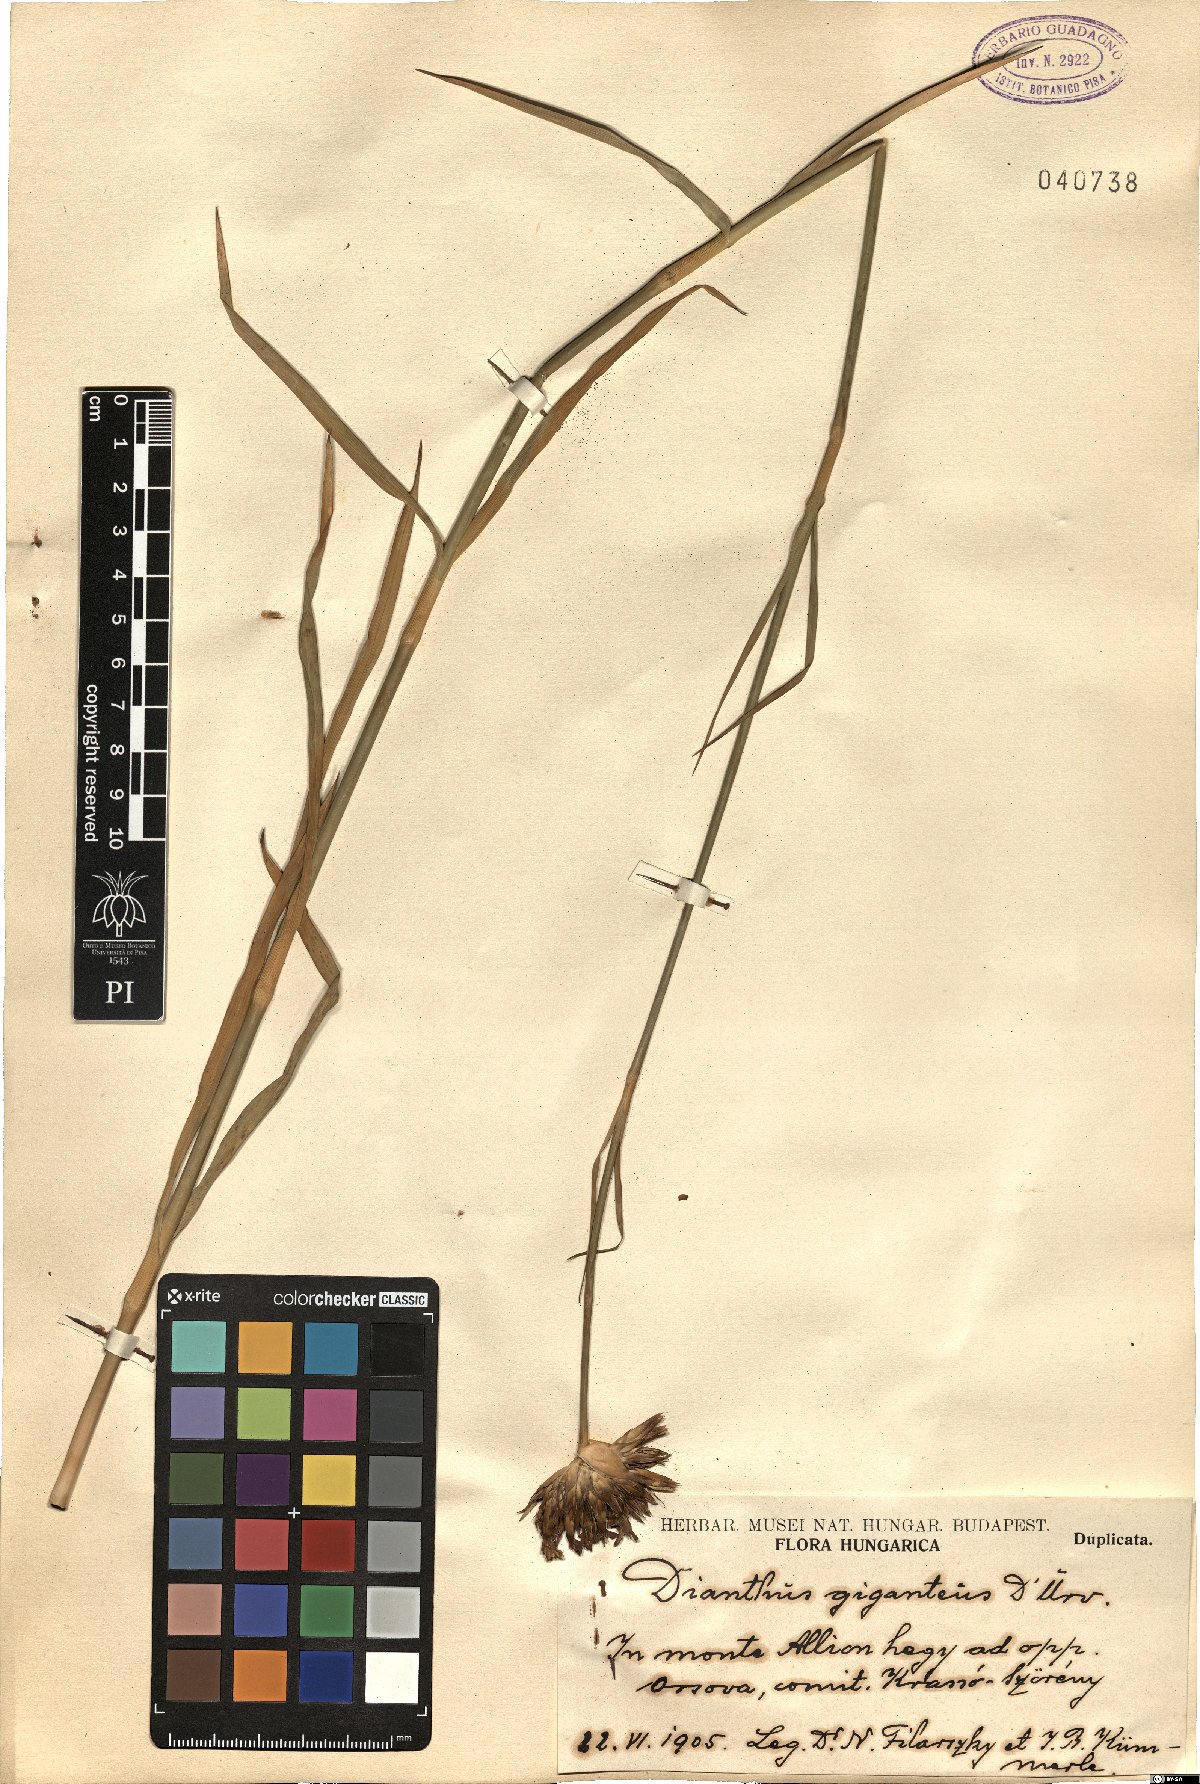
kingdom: Plantae
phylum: Tracheophyta
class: Magnoliopsida
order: Caryophyllales
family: Caryophyllaceae
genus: Dianthus
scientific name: Dianthus giganteus
